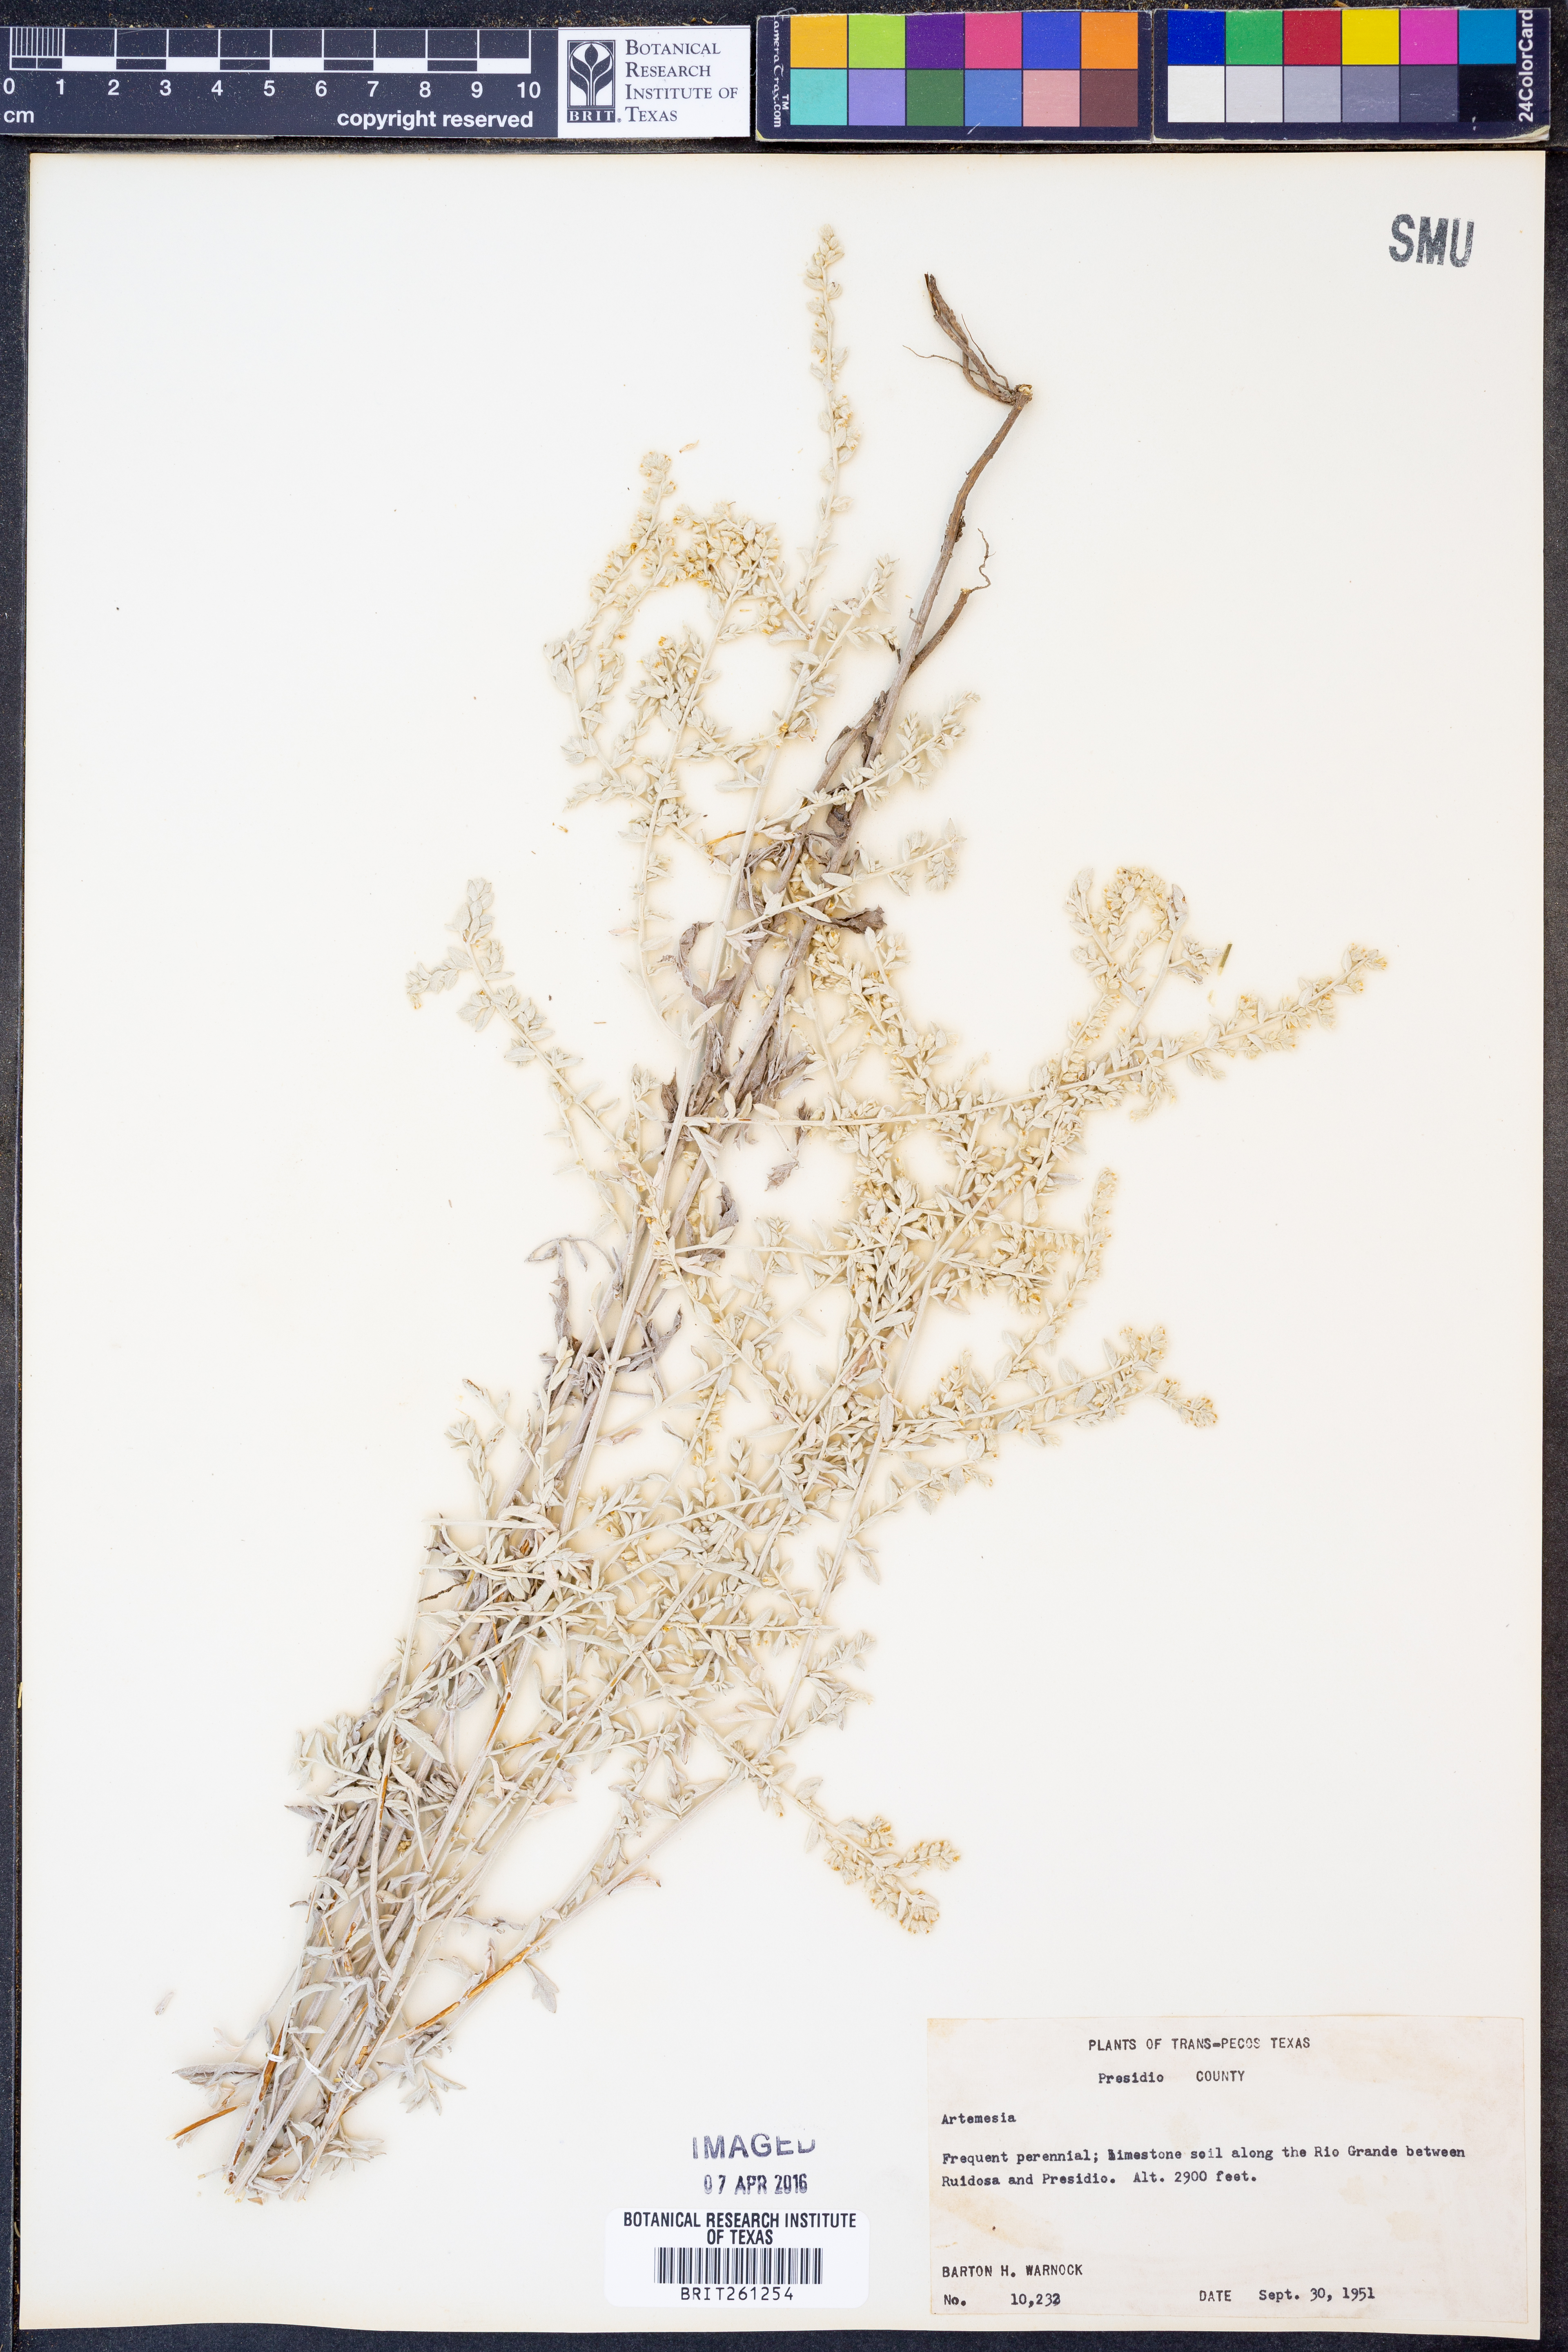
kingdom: Plantae
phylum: Tracheophyta
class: Magnoliopsida
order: Asterales
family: Asteraceae
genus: Artemisia
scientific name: Artemisia
